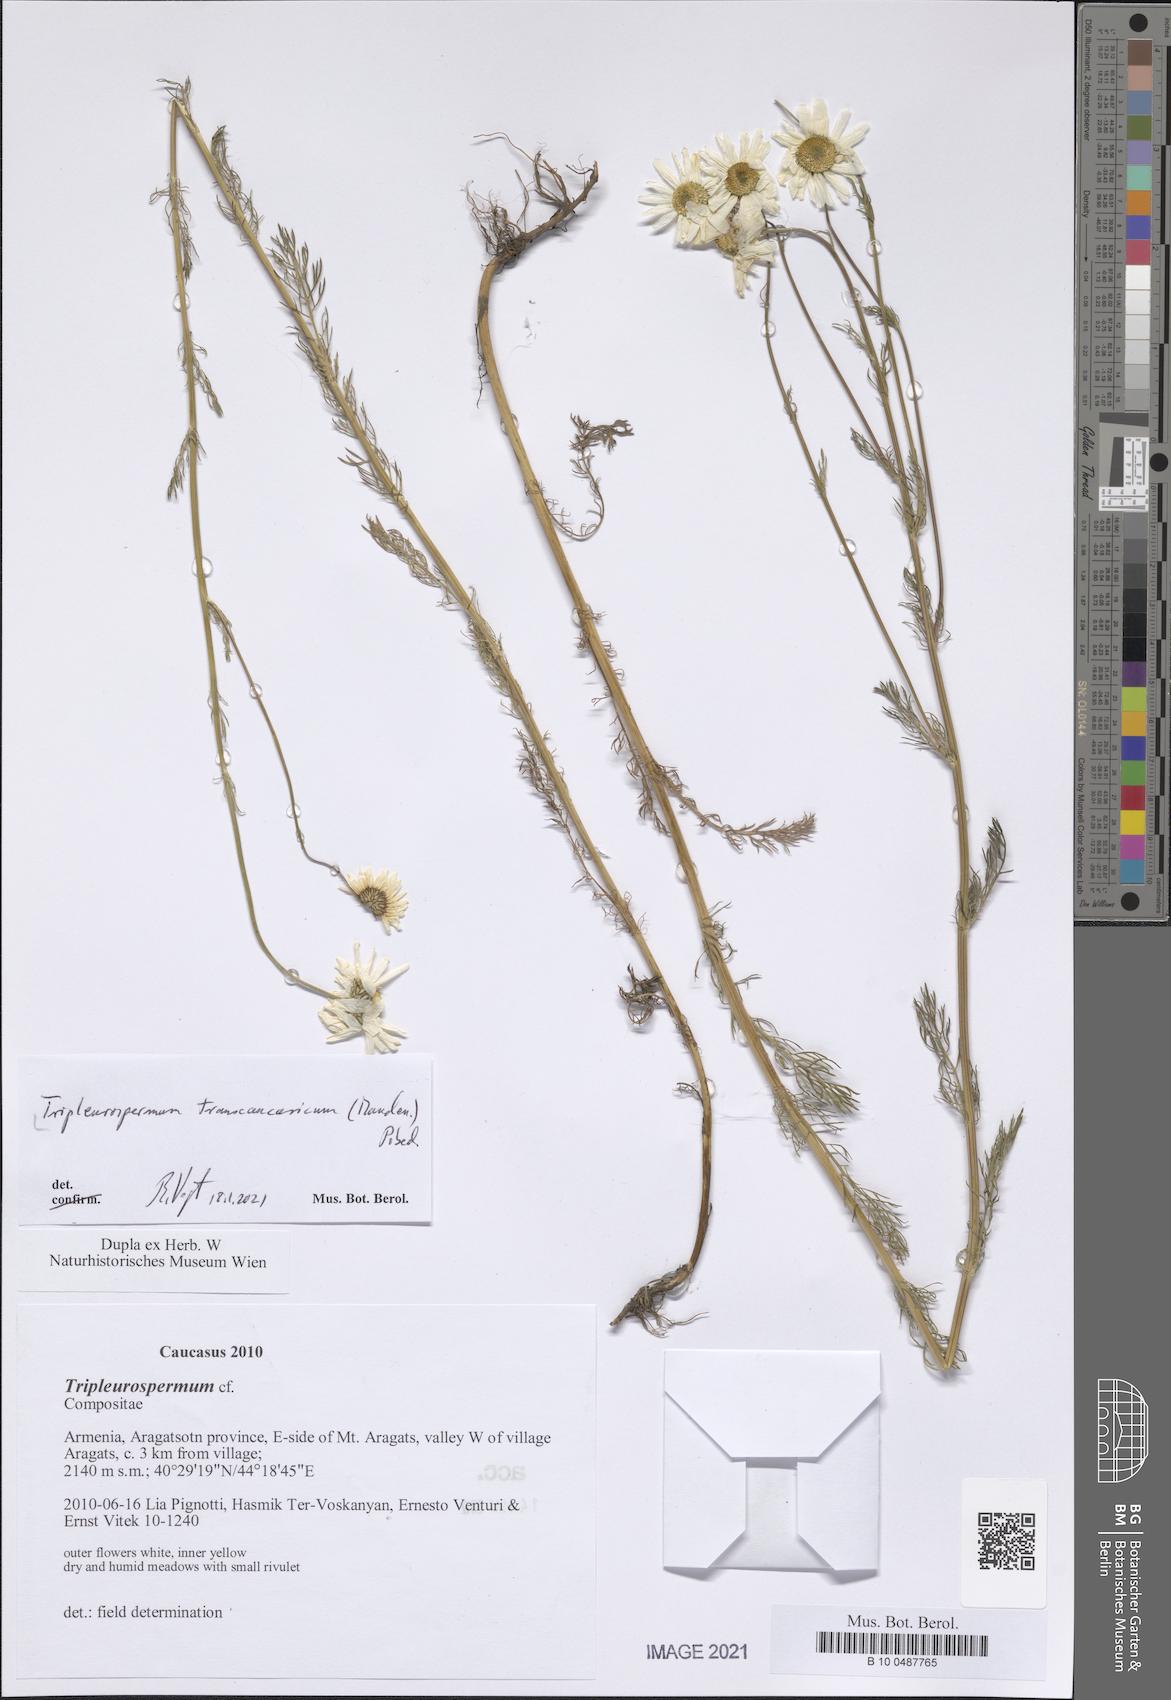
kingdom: Plantae
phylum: Tracheophyta
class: Magnoliopsida
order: Asterales
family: Asteraceae
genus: Tripleurospermum
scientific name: Tripleurospermum transcaucasicum
